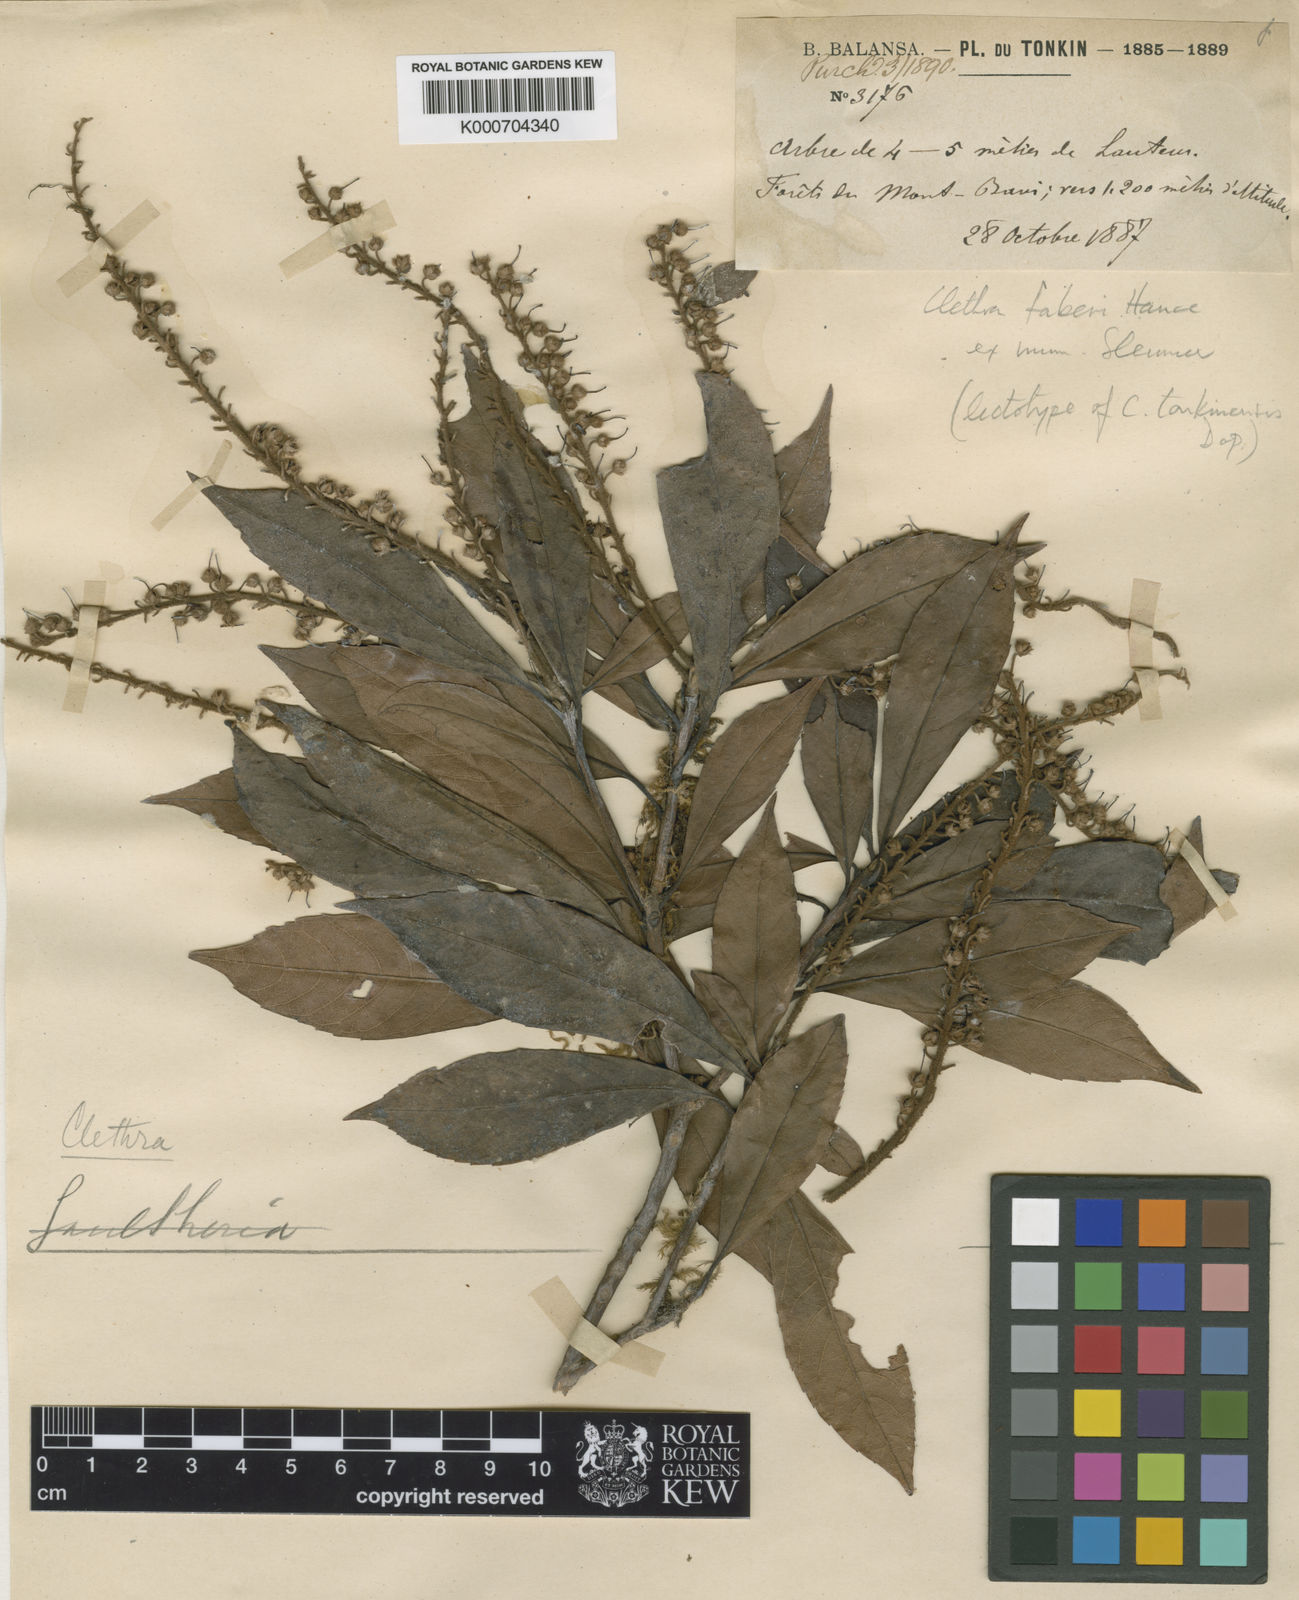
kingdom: Plantae
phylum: Tracheophyta
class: Magnoliopsida
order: Ericales
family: Clethraceae
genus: Clethra
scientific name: Clethra fabri
